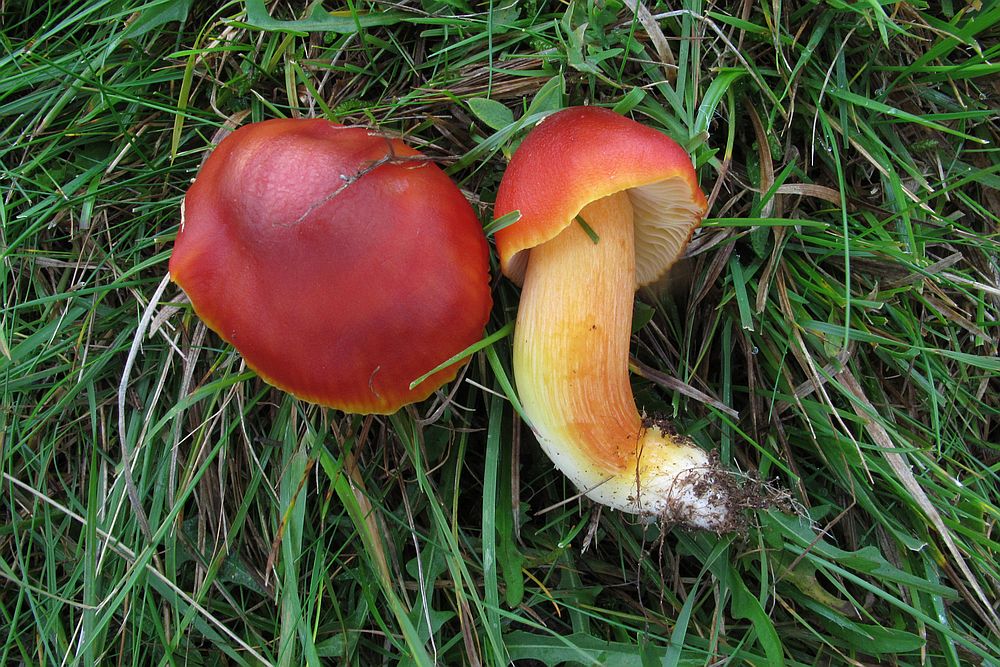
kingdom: Fungi
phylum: Basidiomycota
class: Agaricomycetes
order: Agaricales
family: Hygrophoraceae
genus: Hygrocybe
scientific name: Hygrocybe punicea
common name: skarlagen-vokshat
